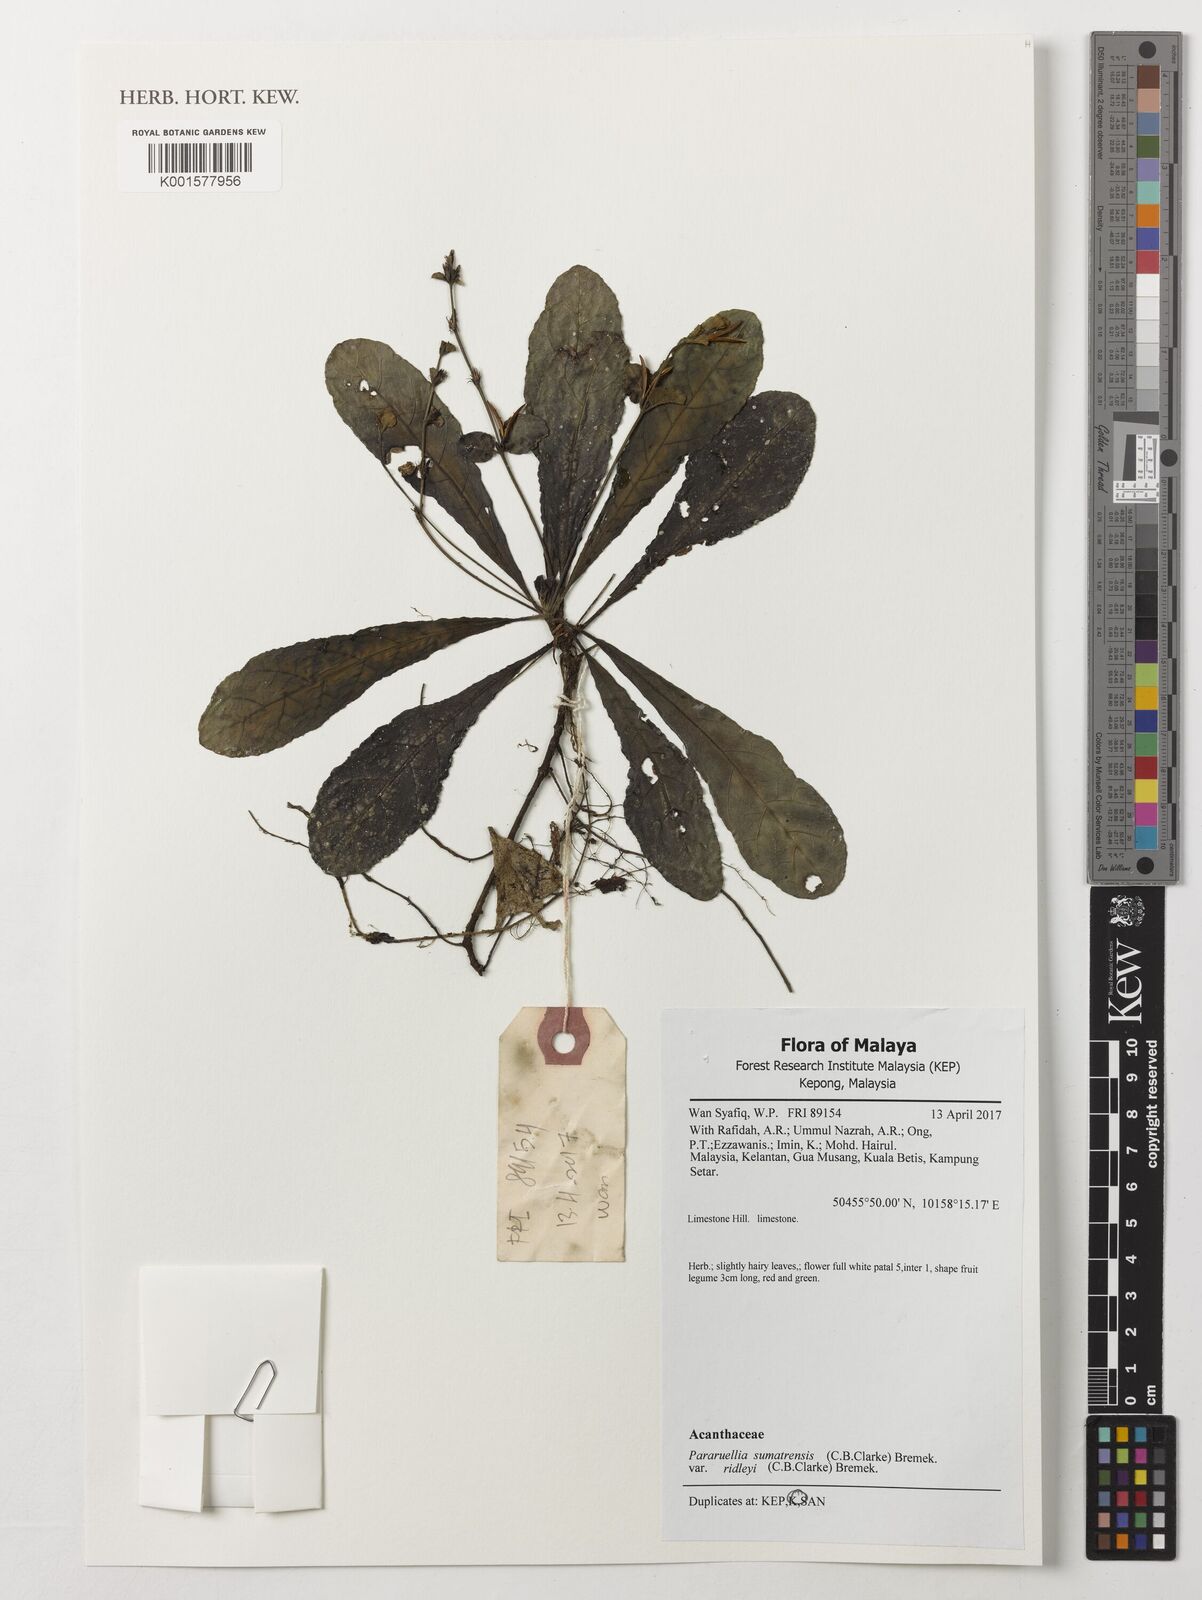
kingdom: Plantae
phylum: Tracheophyta
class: Magnoliopsida
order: Lamiales
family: Acanthaceae
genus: Pararuellia
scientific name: Pararuellia sumatrensis
